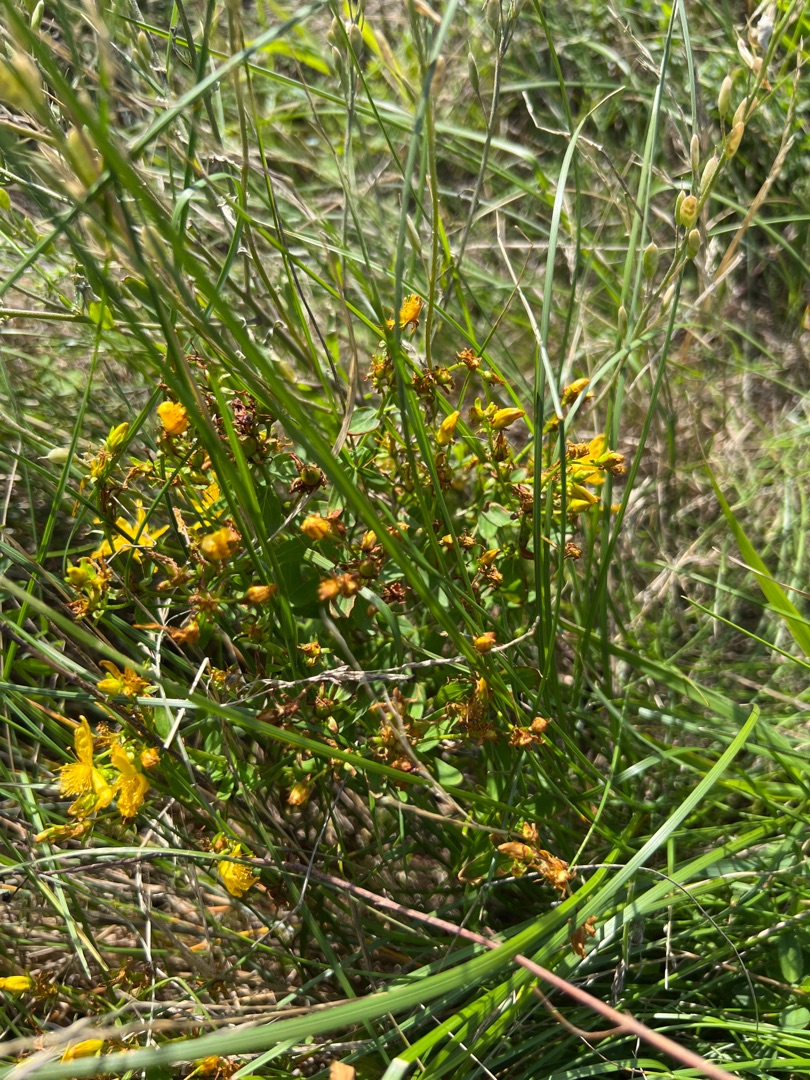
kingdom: Plantae
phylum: Tracheophyta
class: Magnoliopsida
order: Malpighiales
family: Hypericaceae
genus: Hypericum
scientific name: Hypericum perforatum
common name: Prikbladet perikon
